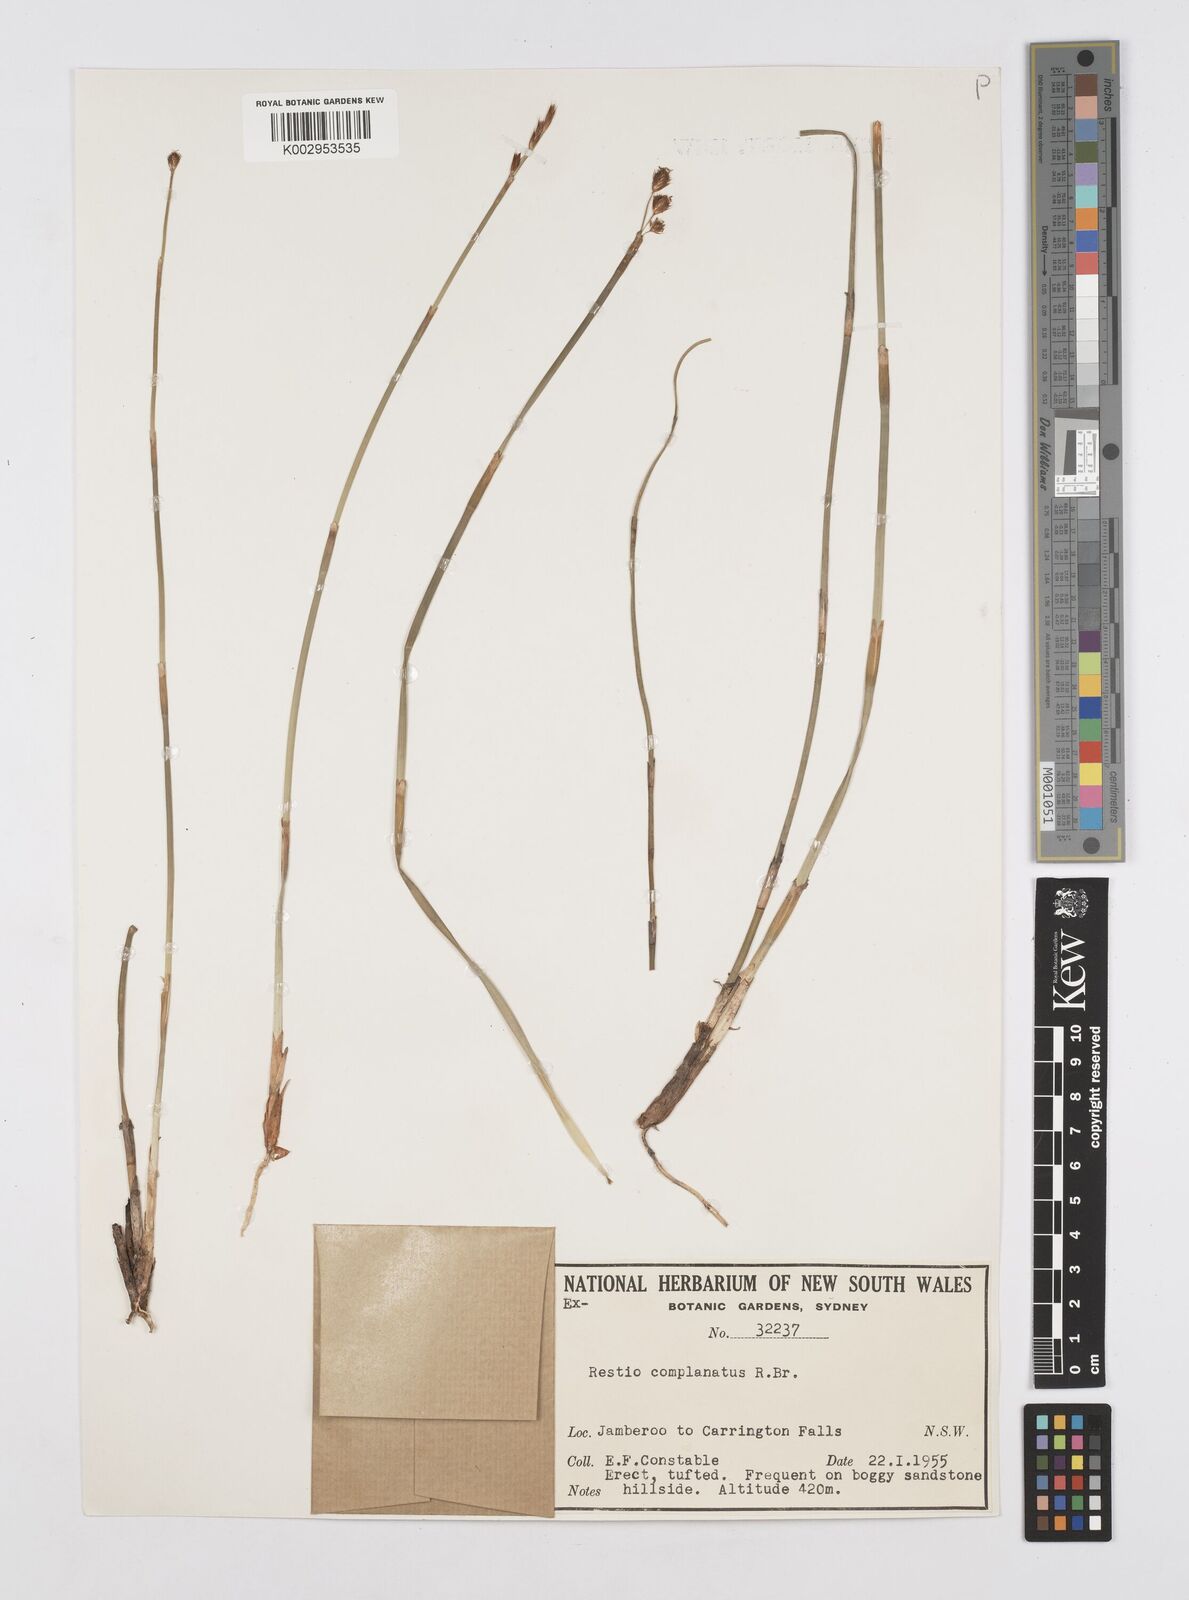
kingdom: Plantae
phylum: Tracheophyta
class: Liliopsida
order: Poales
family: Restionaceae
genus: Eurychorda
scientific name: Eurychorda complanata
